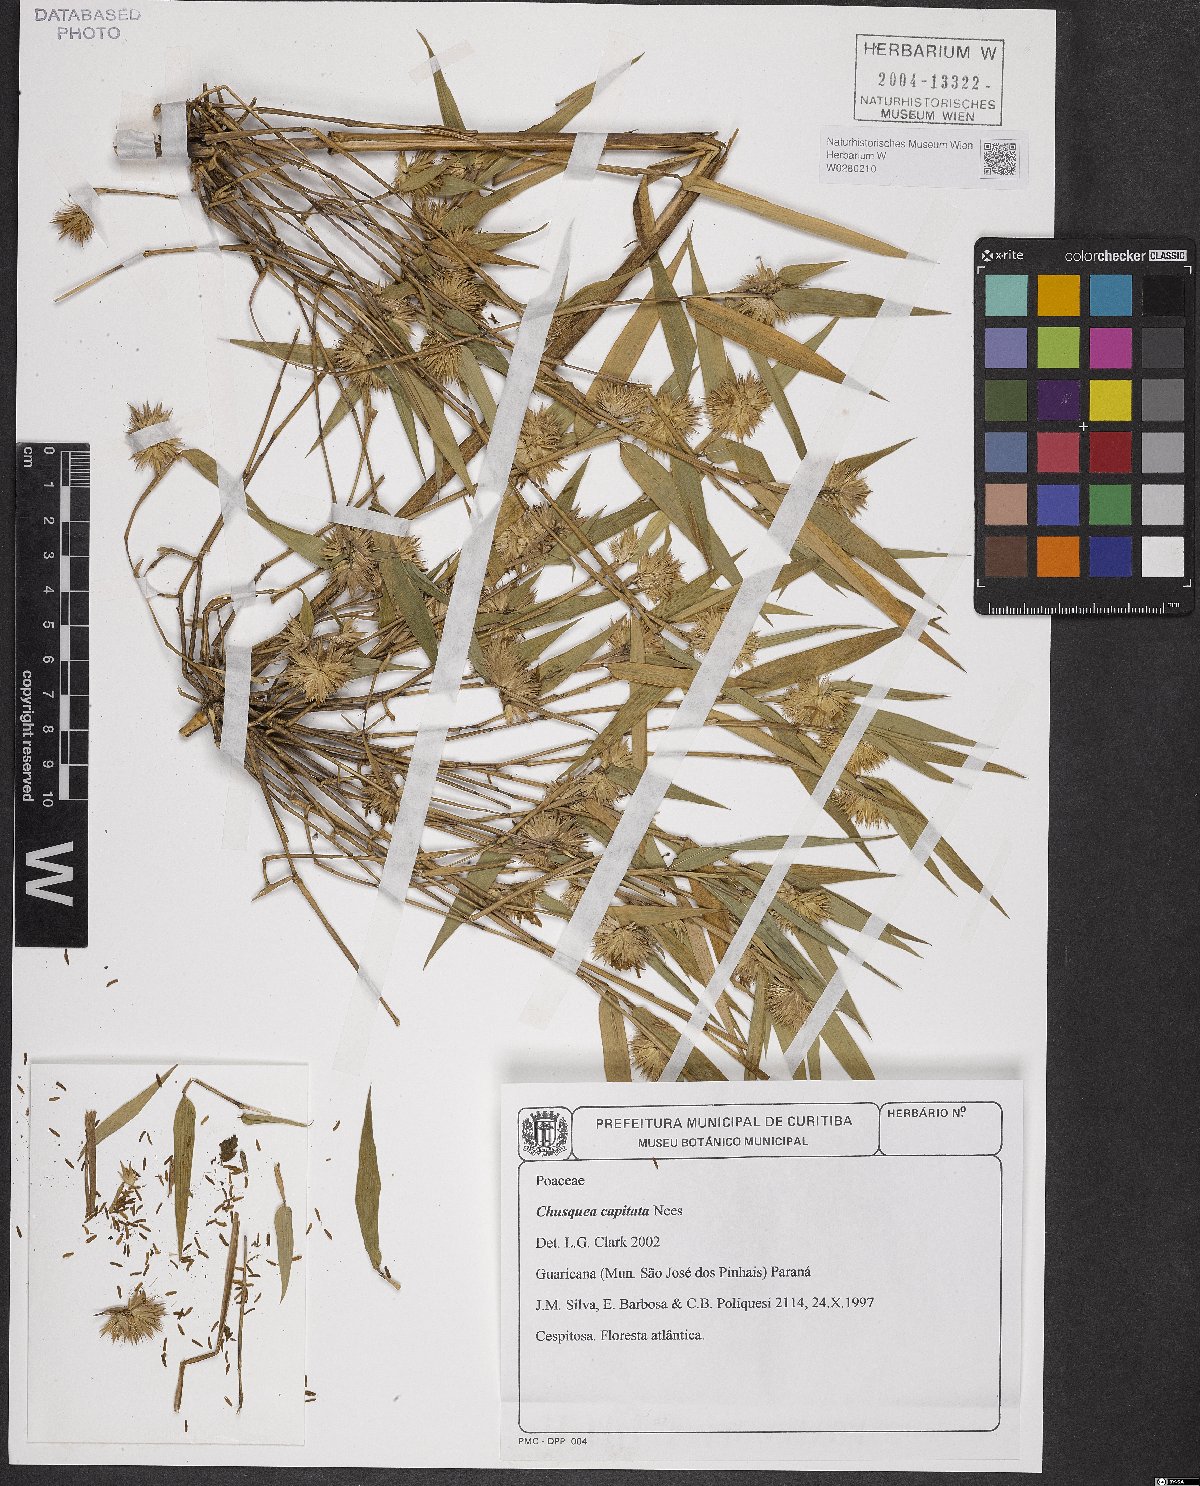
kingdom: Plantae
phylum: Tracheophyta
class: Liliopsida
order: Poales
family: Poaceae
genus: Chusquea
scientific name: Chusquea capitata
